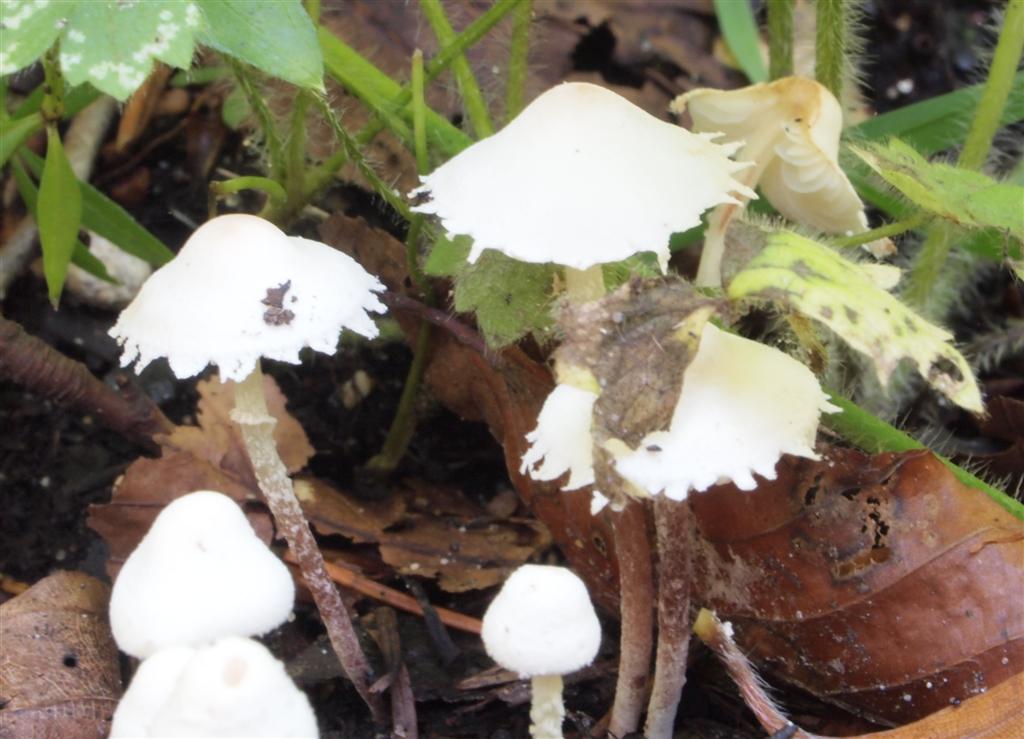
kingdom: Fungi
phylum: Basidiomycota
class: Agaricomycetes
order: Agaricales
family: Agaricaceae
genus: Cystolepiota
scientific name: Cystolepiota seminuda
